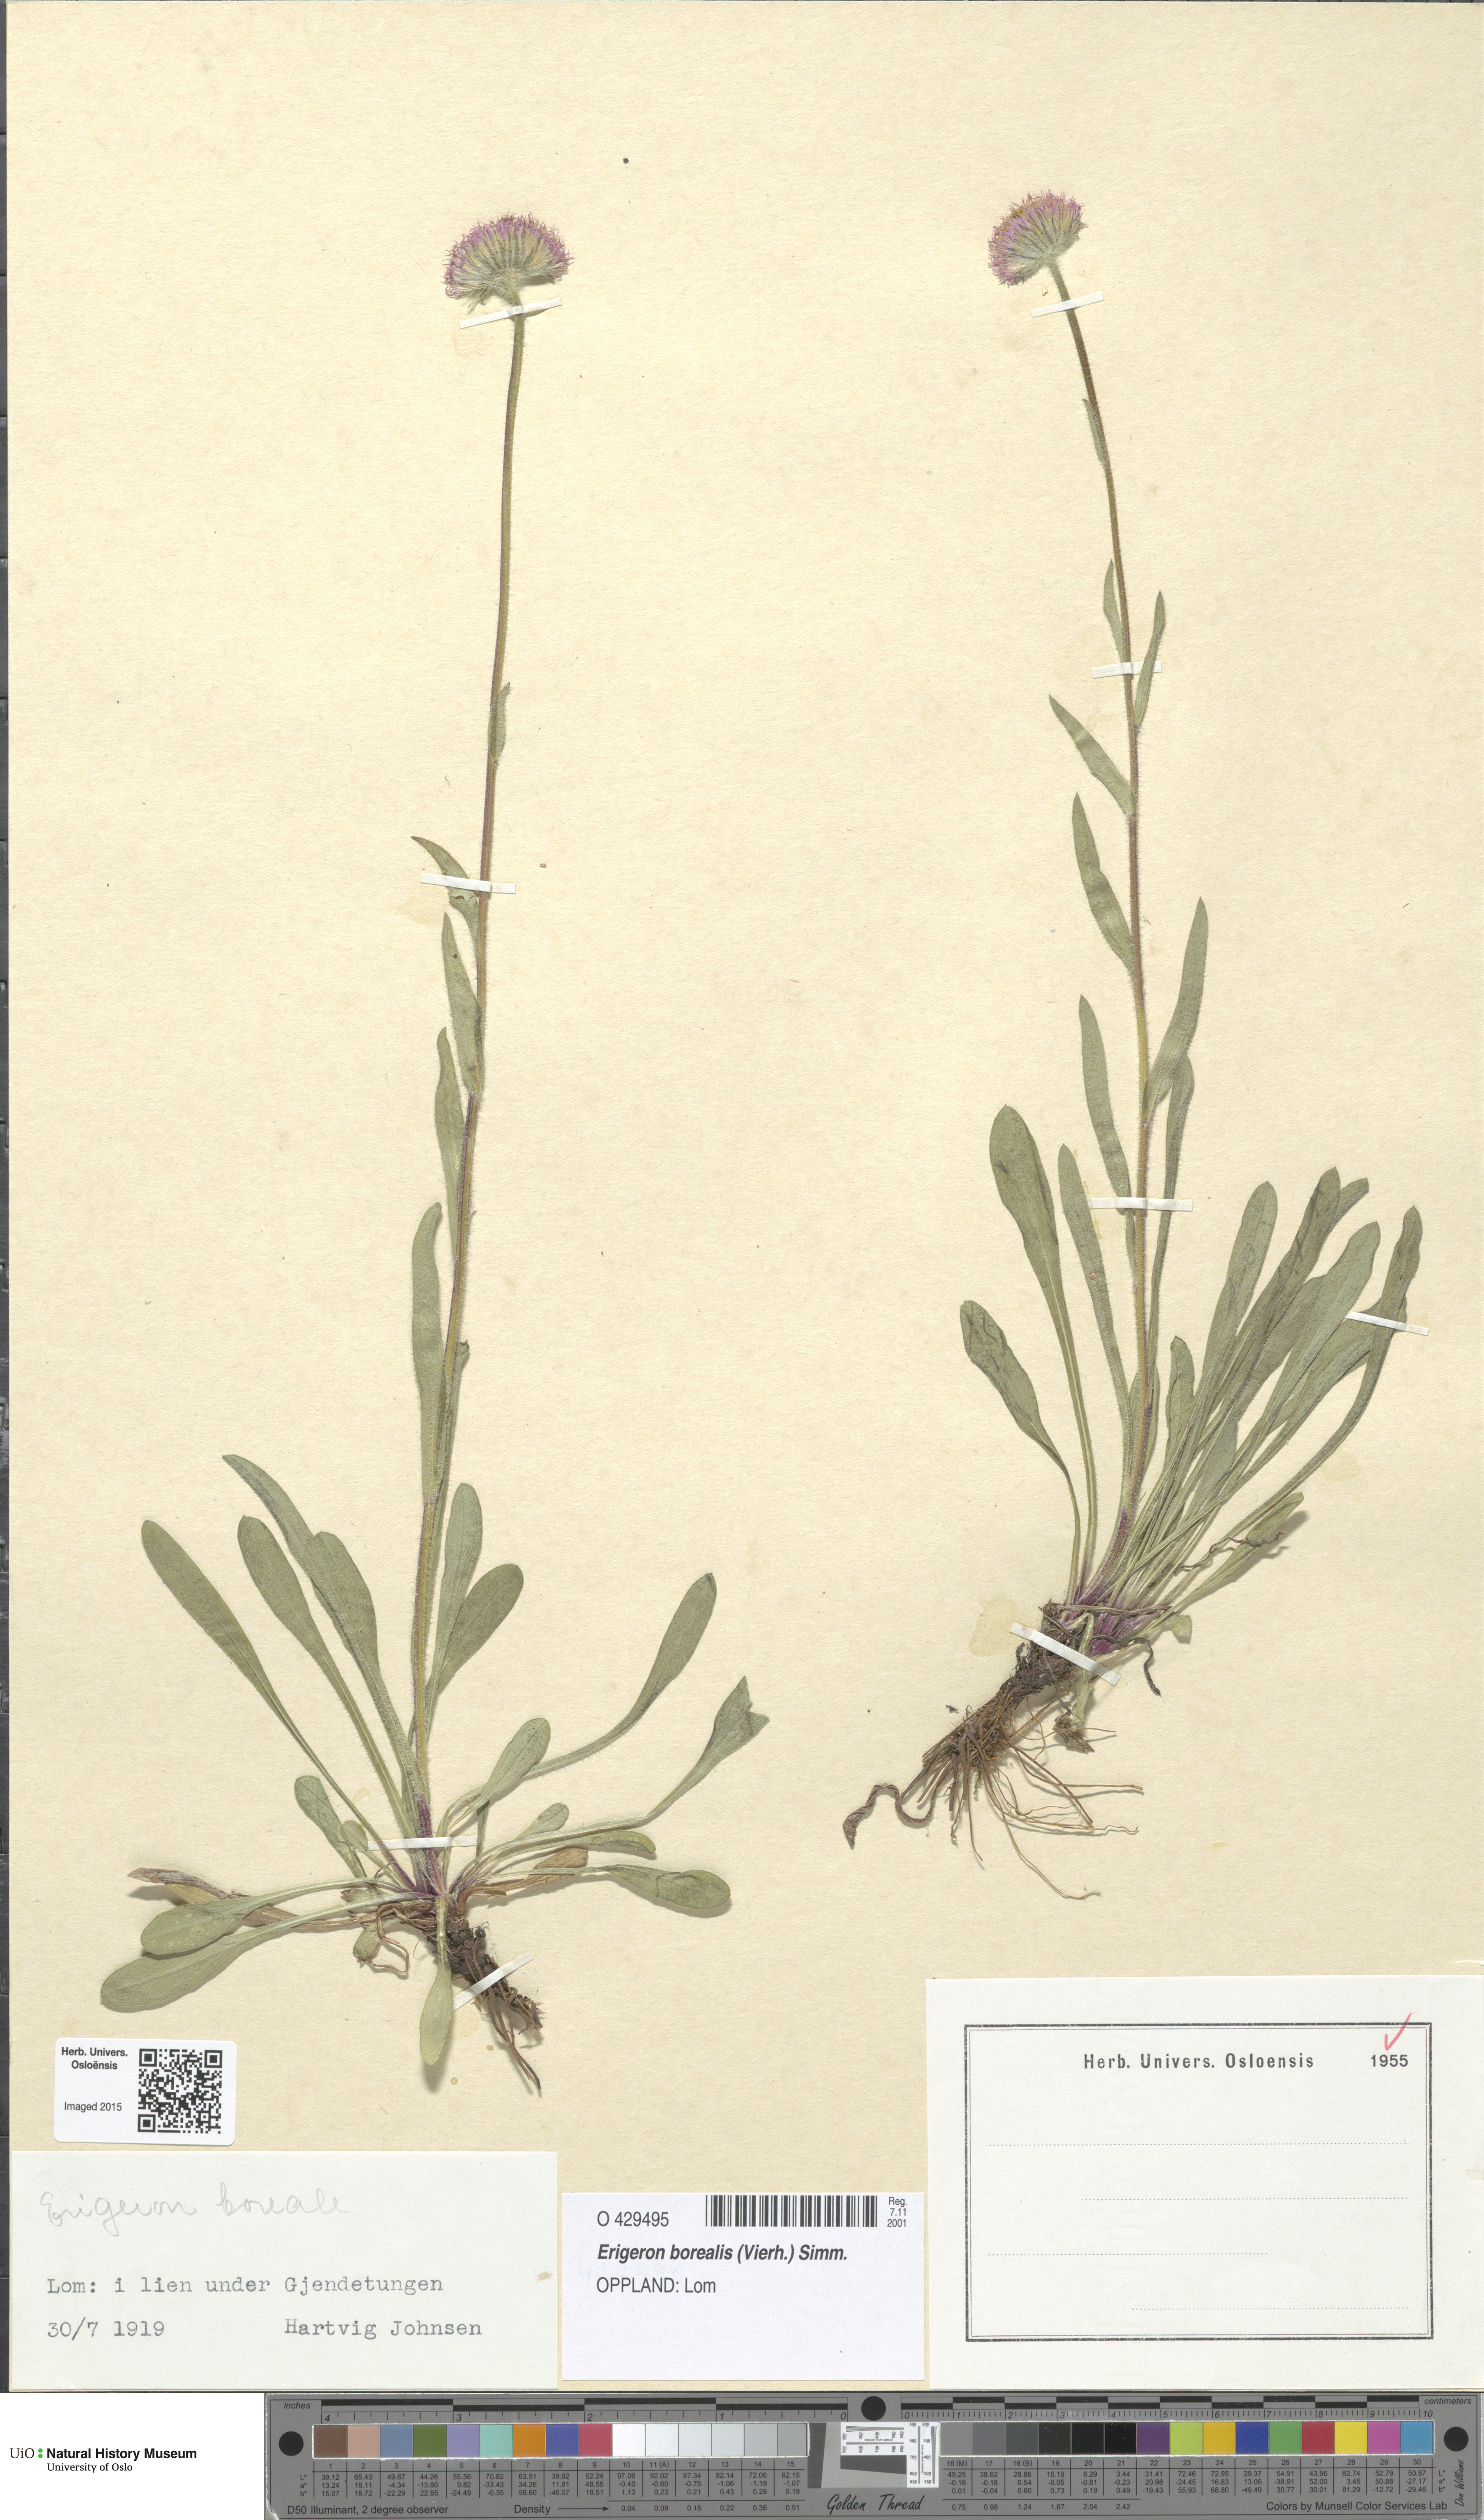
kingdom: Plantae
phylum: Tracheophyta
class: Magnoliopsida
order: Asterales
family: Asteraceae
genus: Erigeron
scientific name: Erigeron borealis
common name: Alpine fleabane
